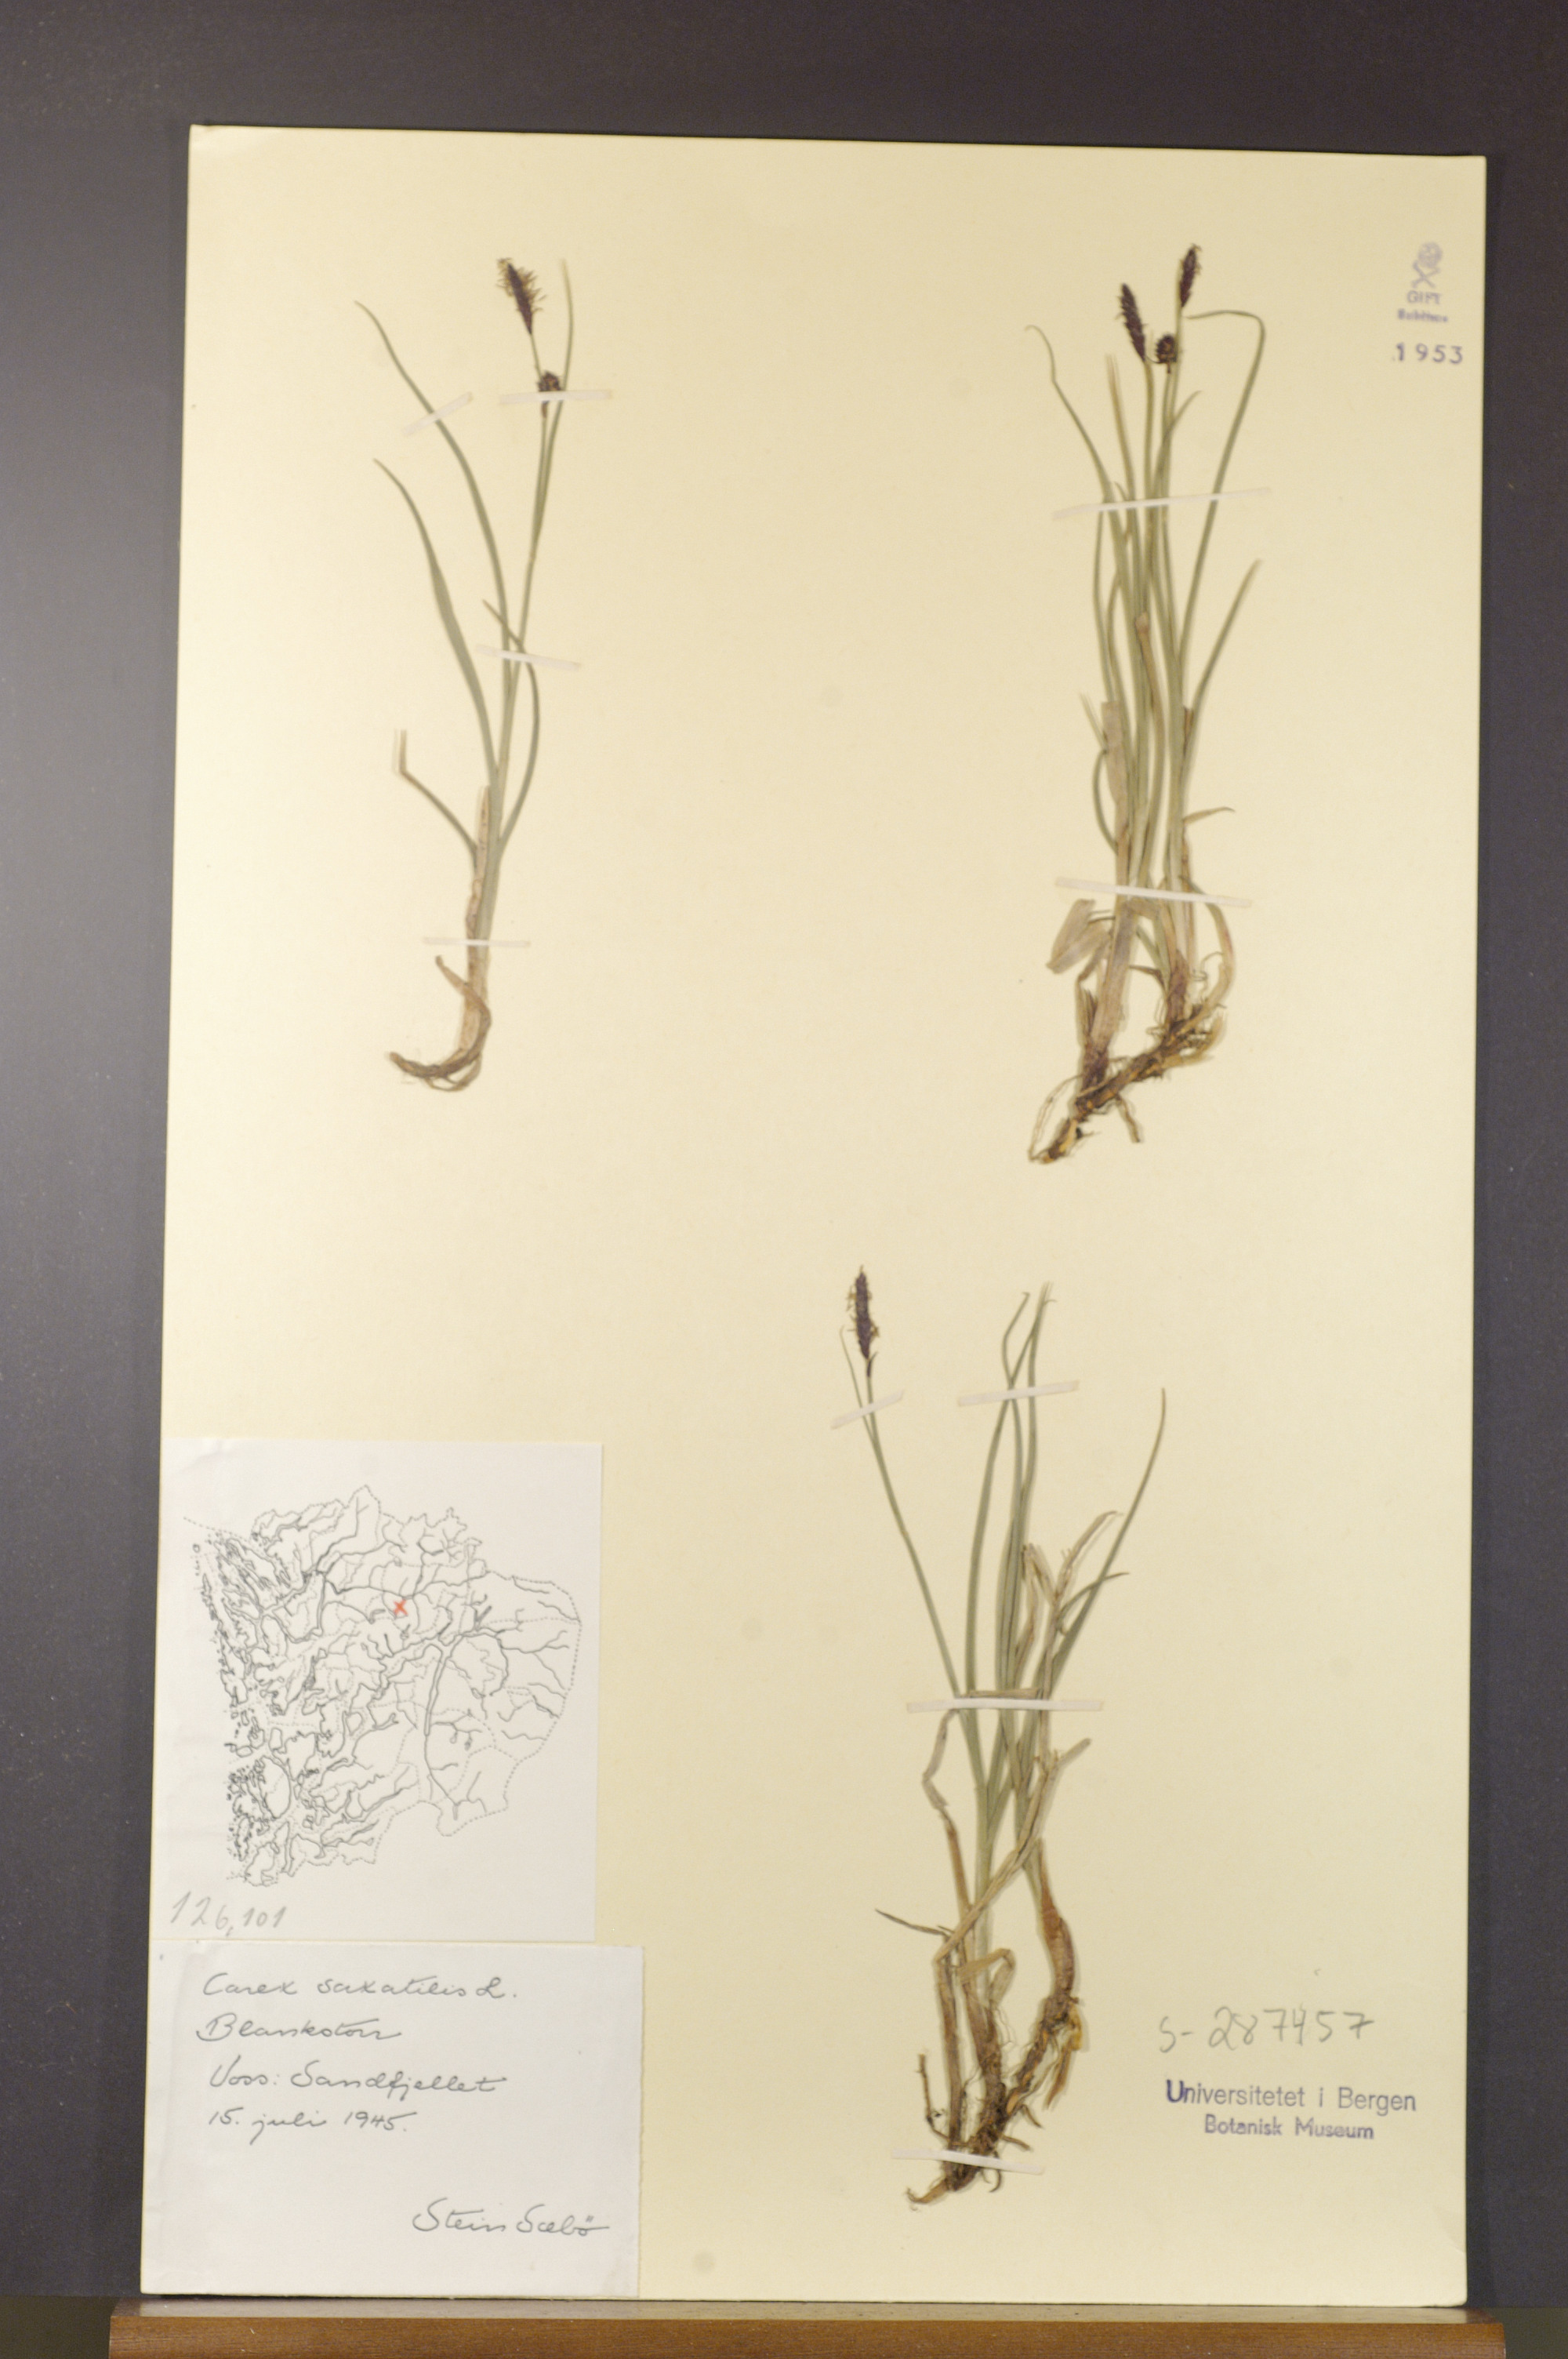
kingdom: Plantae
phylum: Tracheophyta
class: Liliopsida
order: Poales
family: Cyperaceae
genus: Carex
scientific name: Carex saxatilis
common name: Russet sedge
